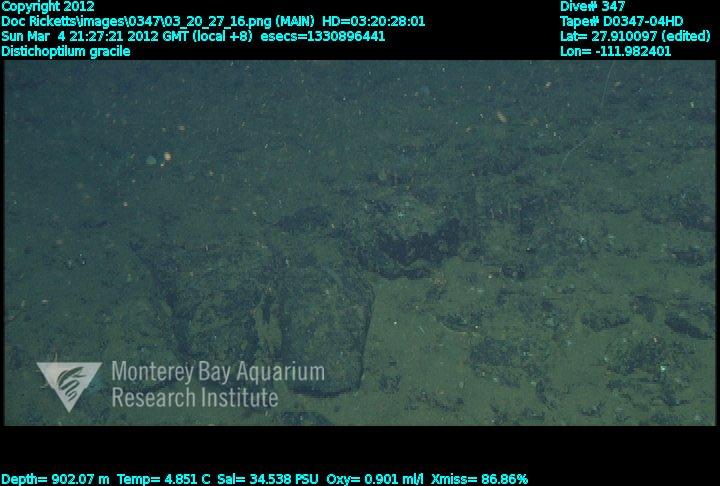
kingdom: Animalia
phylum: Cnidaria
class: Anthozoa
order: Scleralcyonacea
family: Protoptilidae
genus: Distichoptilum
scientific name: Distichoptilum gracile
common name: Slender sea pen
